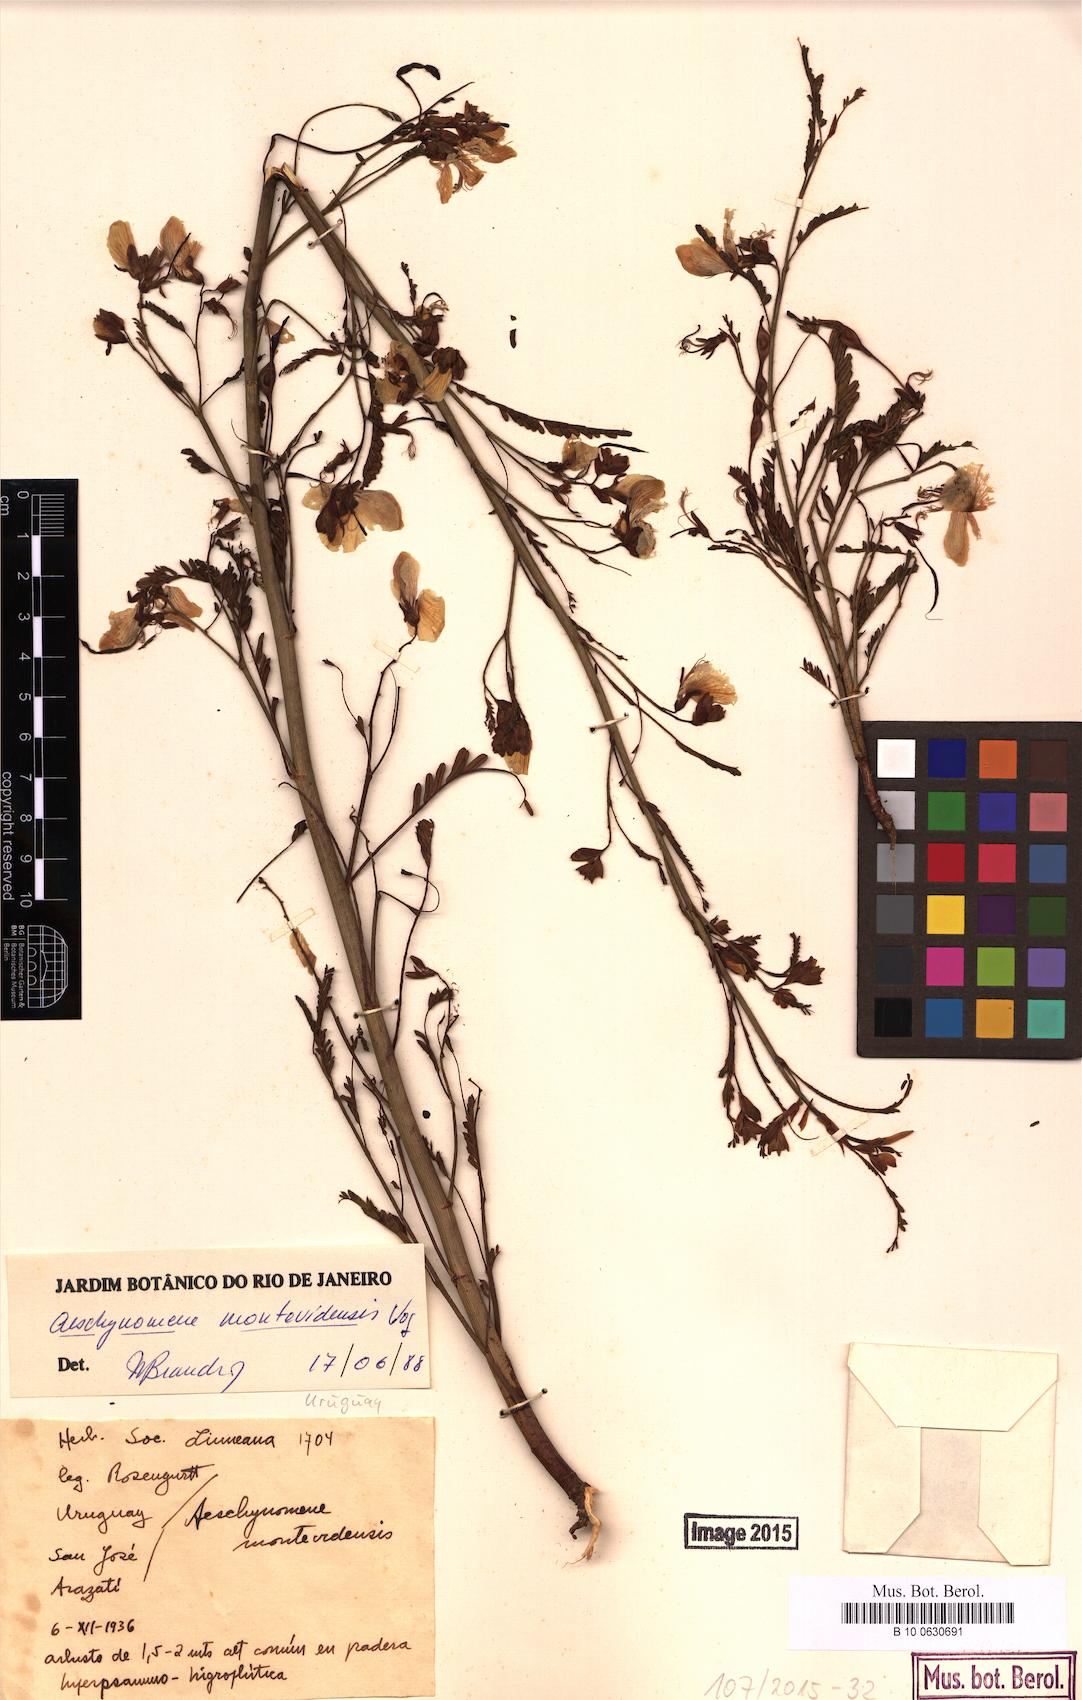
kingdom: Plantae
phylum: Tracheophyta
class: Magnoliopsida
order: Fabales
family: Fabaceae
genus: Aeschynomene
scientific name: Aeschynomene montevidensis
